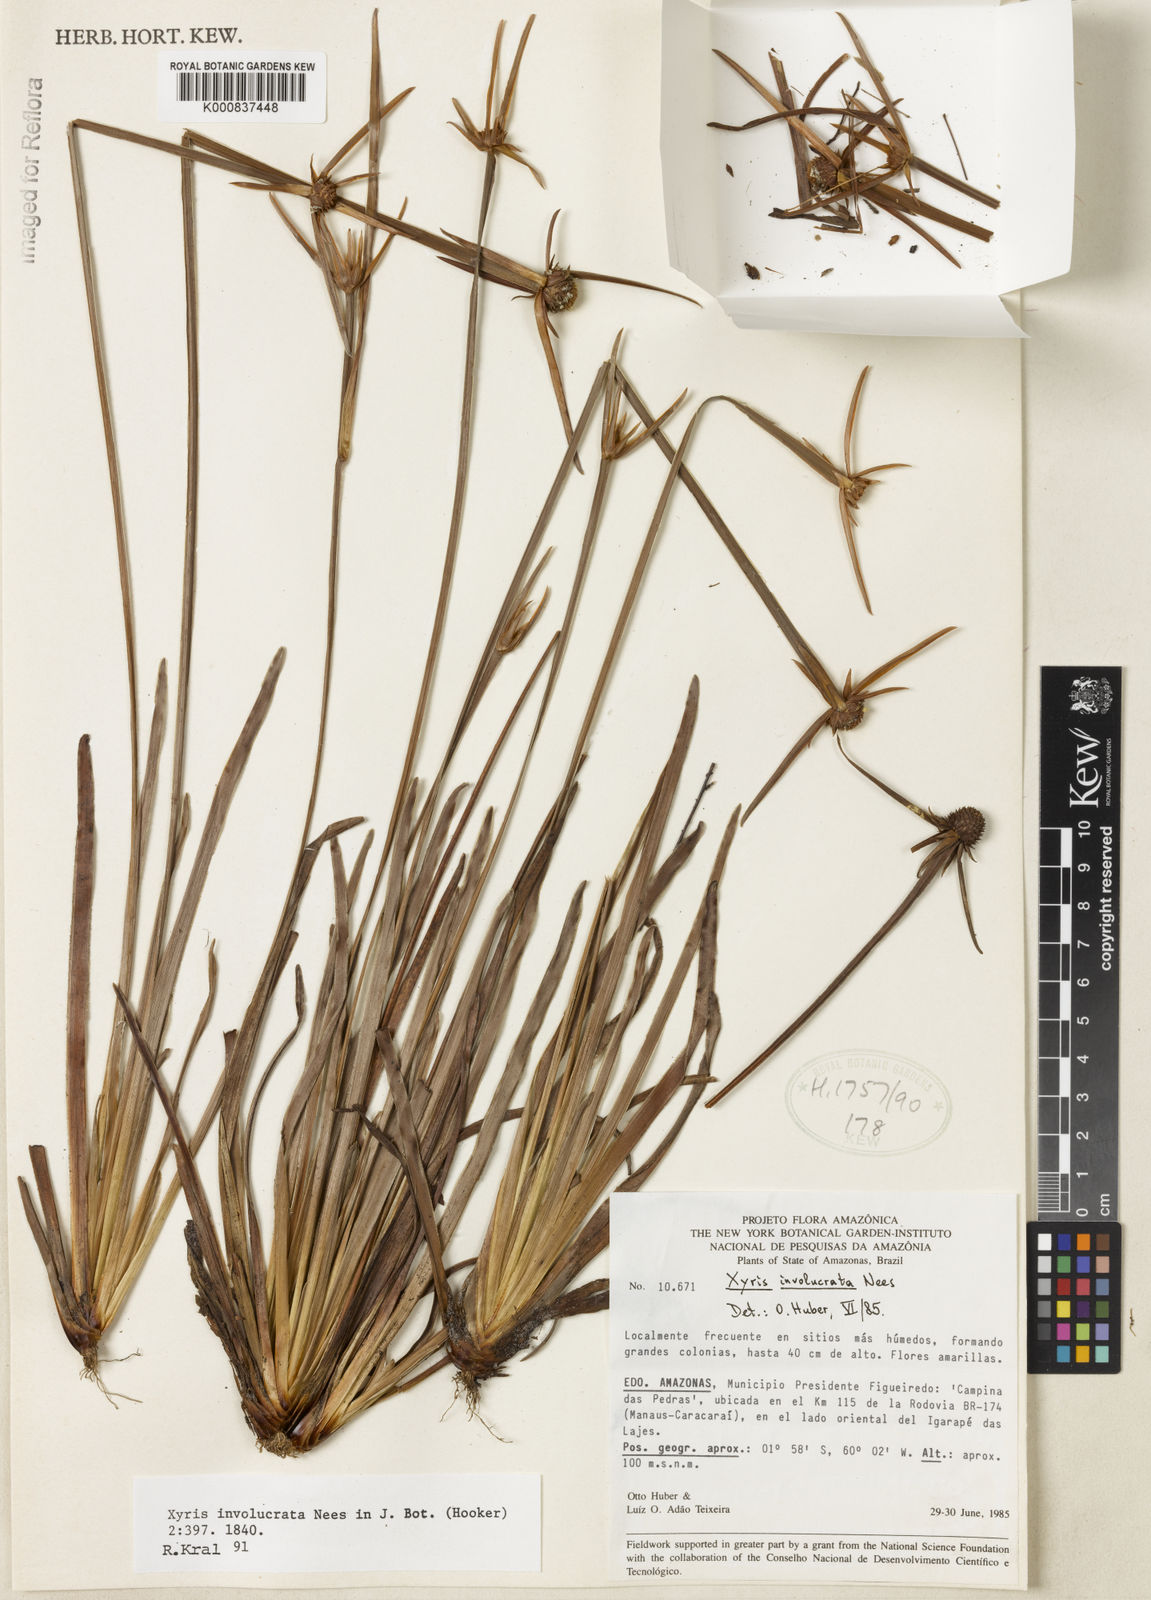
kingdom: Plantae
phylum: Tracheophyta
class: Liliopsida
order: Poales
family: Xyridaceae
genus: Xyris
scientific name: Xyris involucrata
